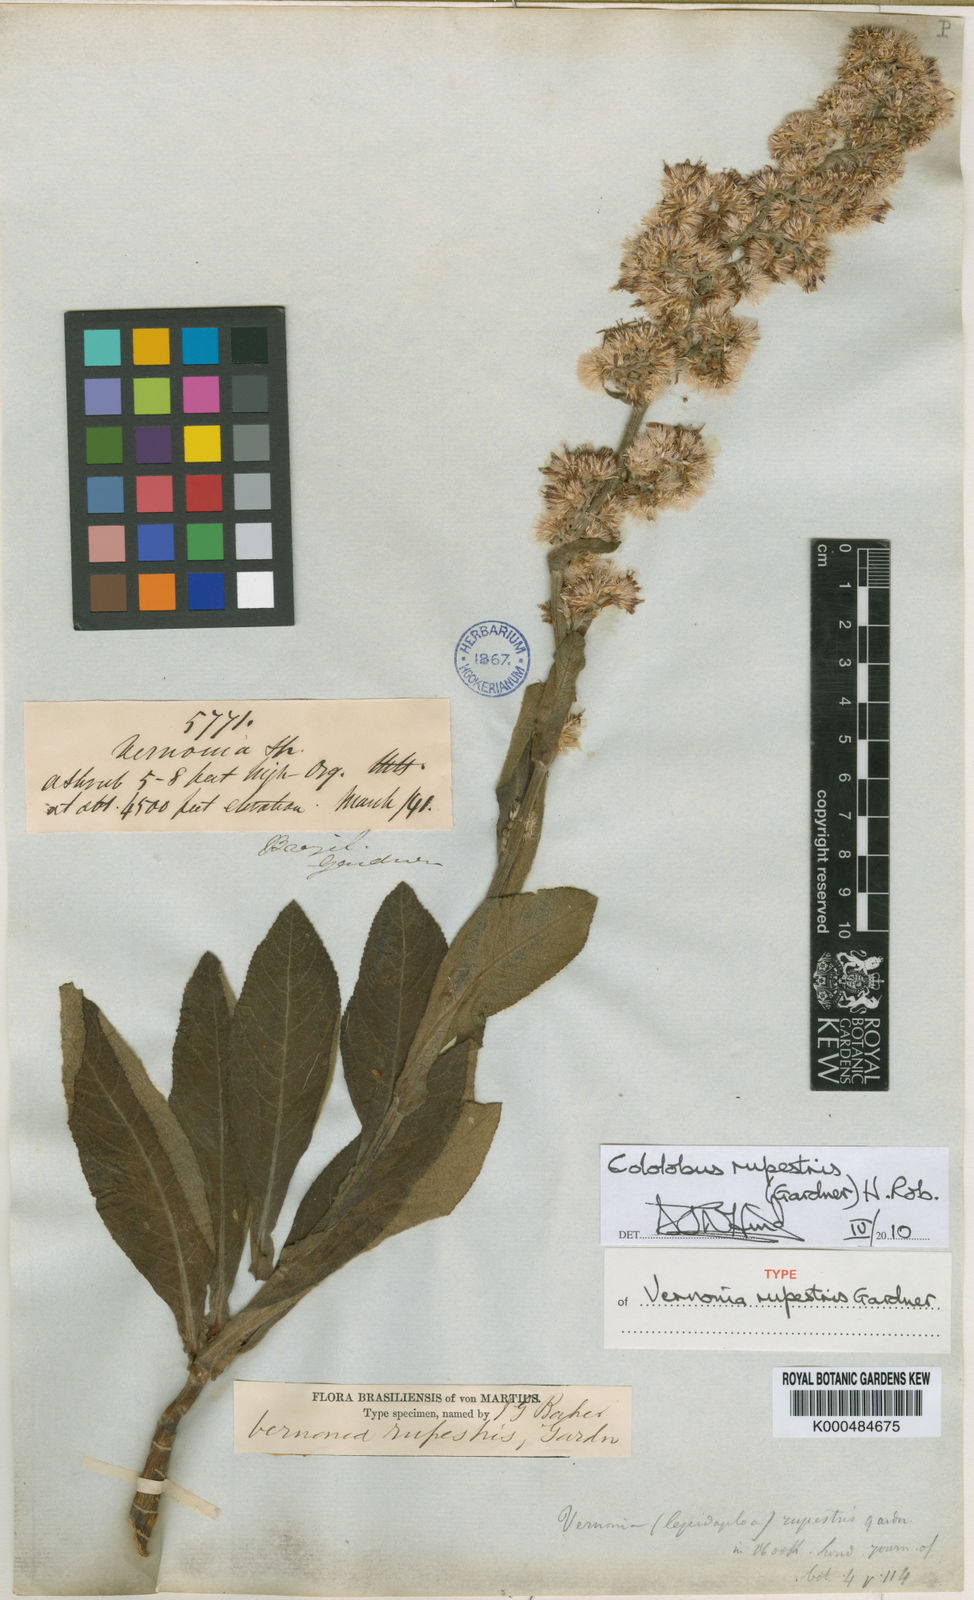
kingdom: Plantae
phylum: Tracheophyta
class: Magnoliopsida
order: Asterales
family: Asteraceae
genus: Cololobus
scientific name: Cololobus rupestris
